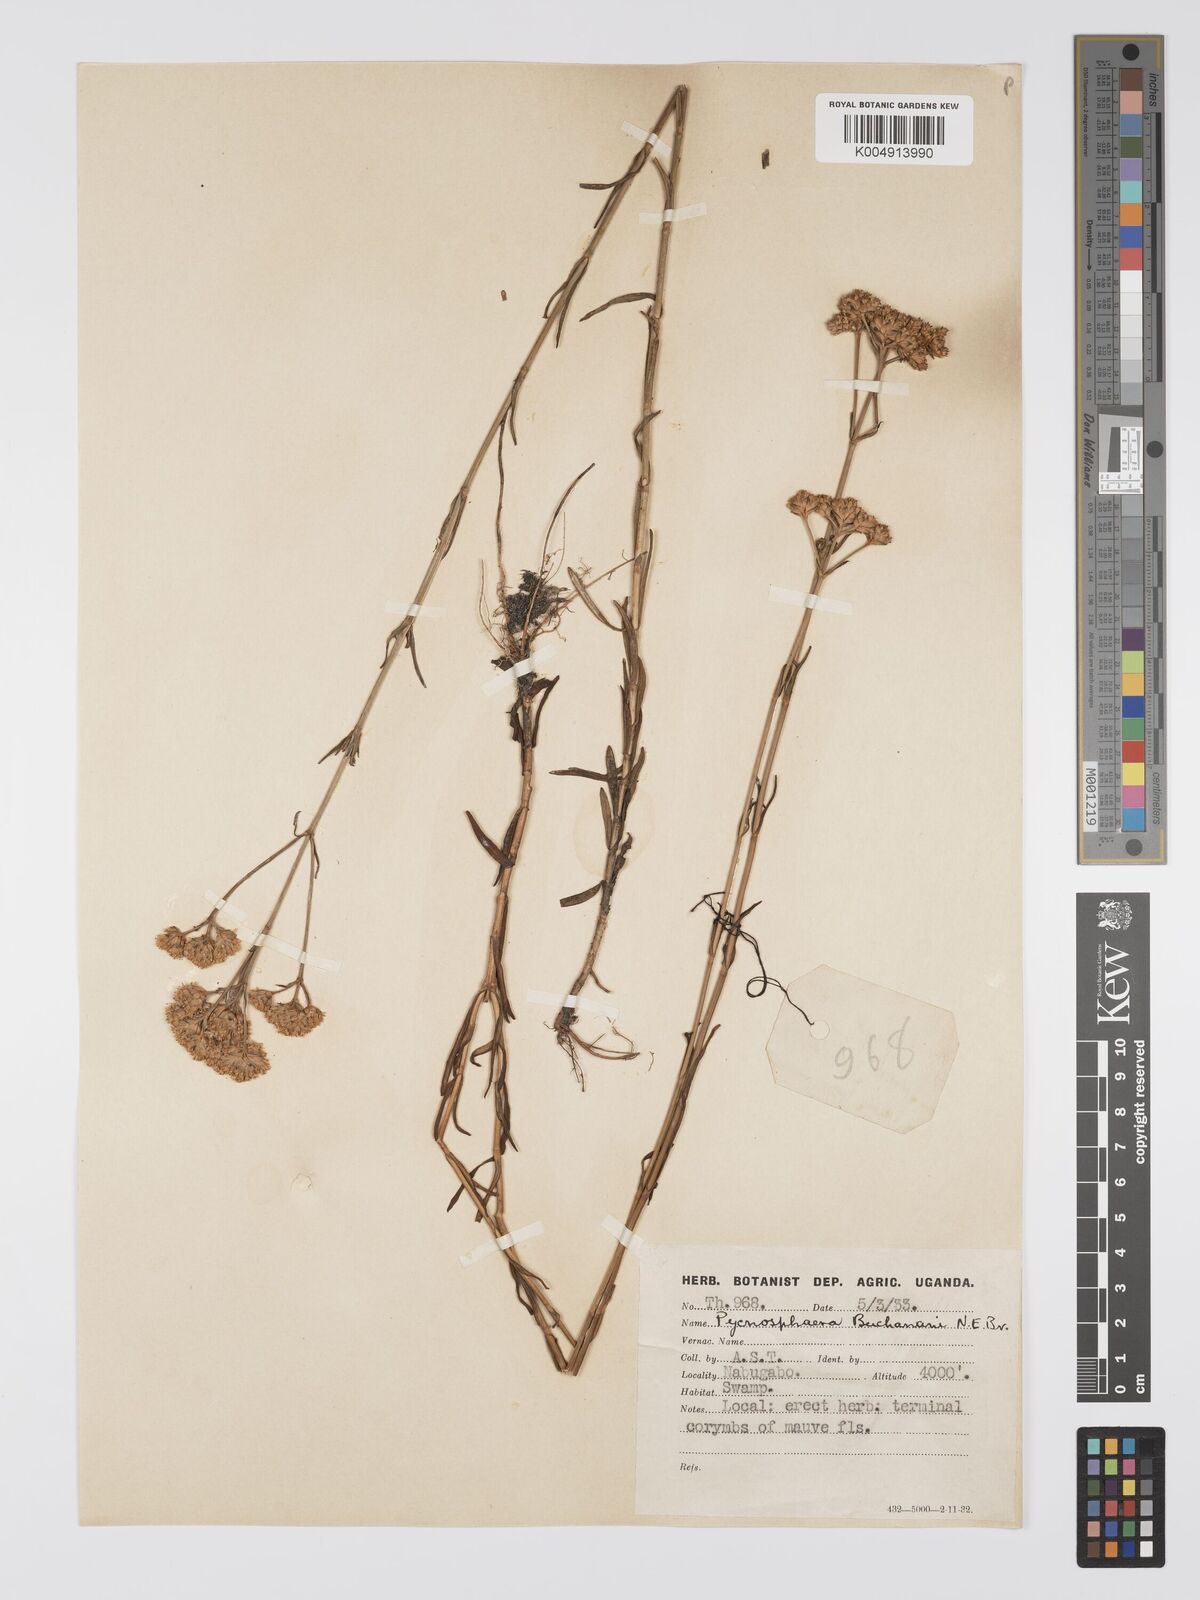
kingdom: Plantae
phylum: Tracheophyta
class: Magnoliopsida
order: Gentianales
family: Gentianaceae
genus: Pycnosphaera
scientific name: Pycnosphaera buchananii
